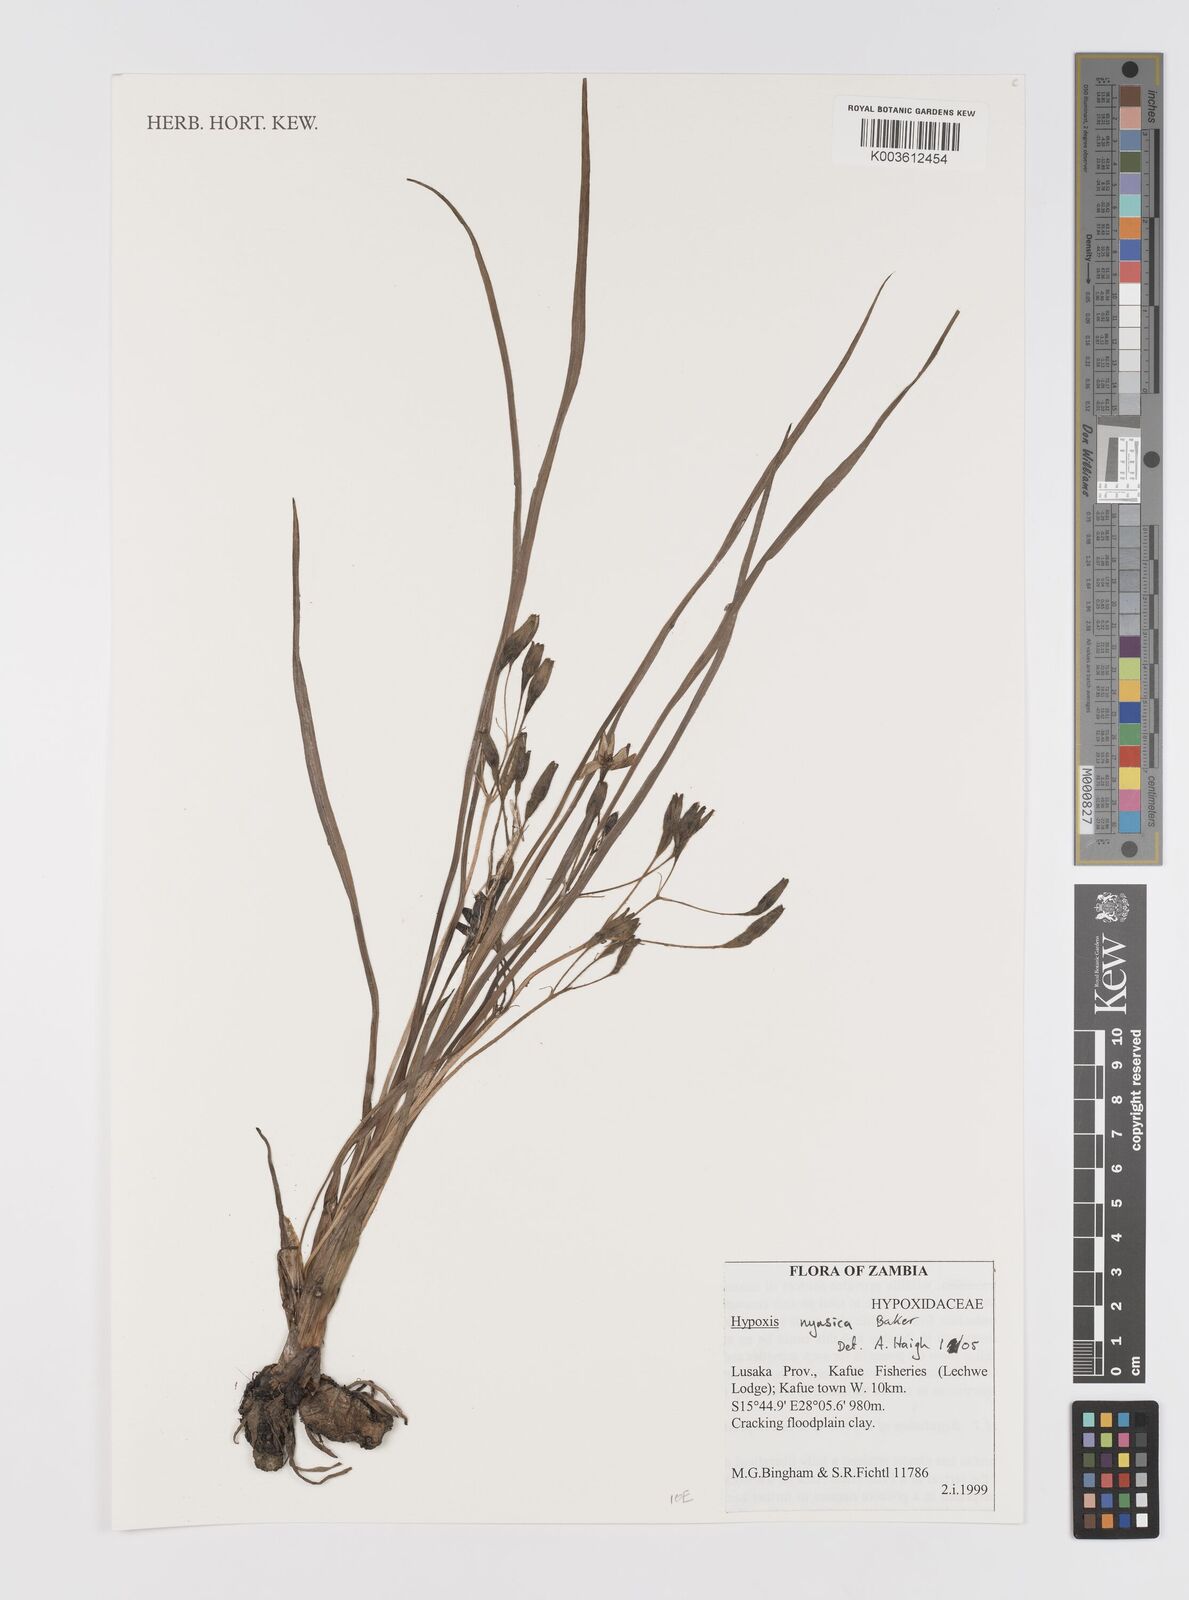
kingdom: Plantae
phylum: Tracheophyta
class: Liliopsida
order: Asparagales
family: Hypoxidaceae
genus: Hypoxis
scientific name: Hypoxis nyasica
